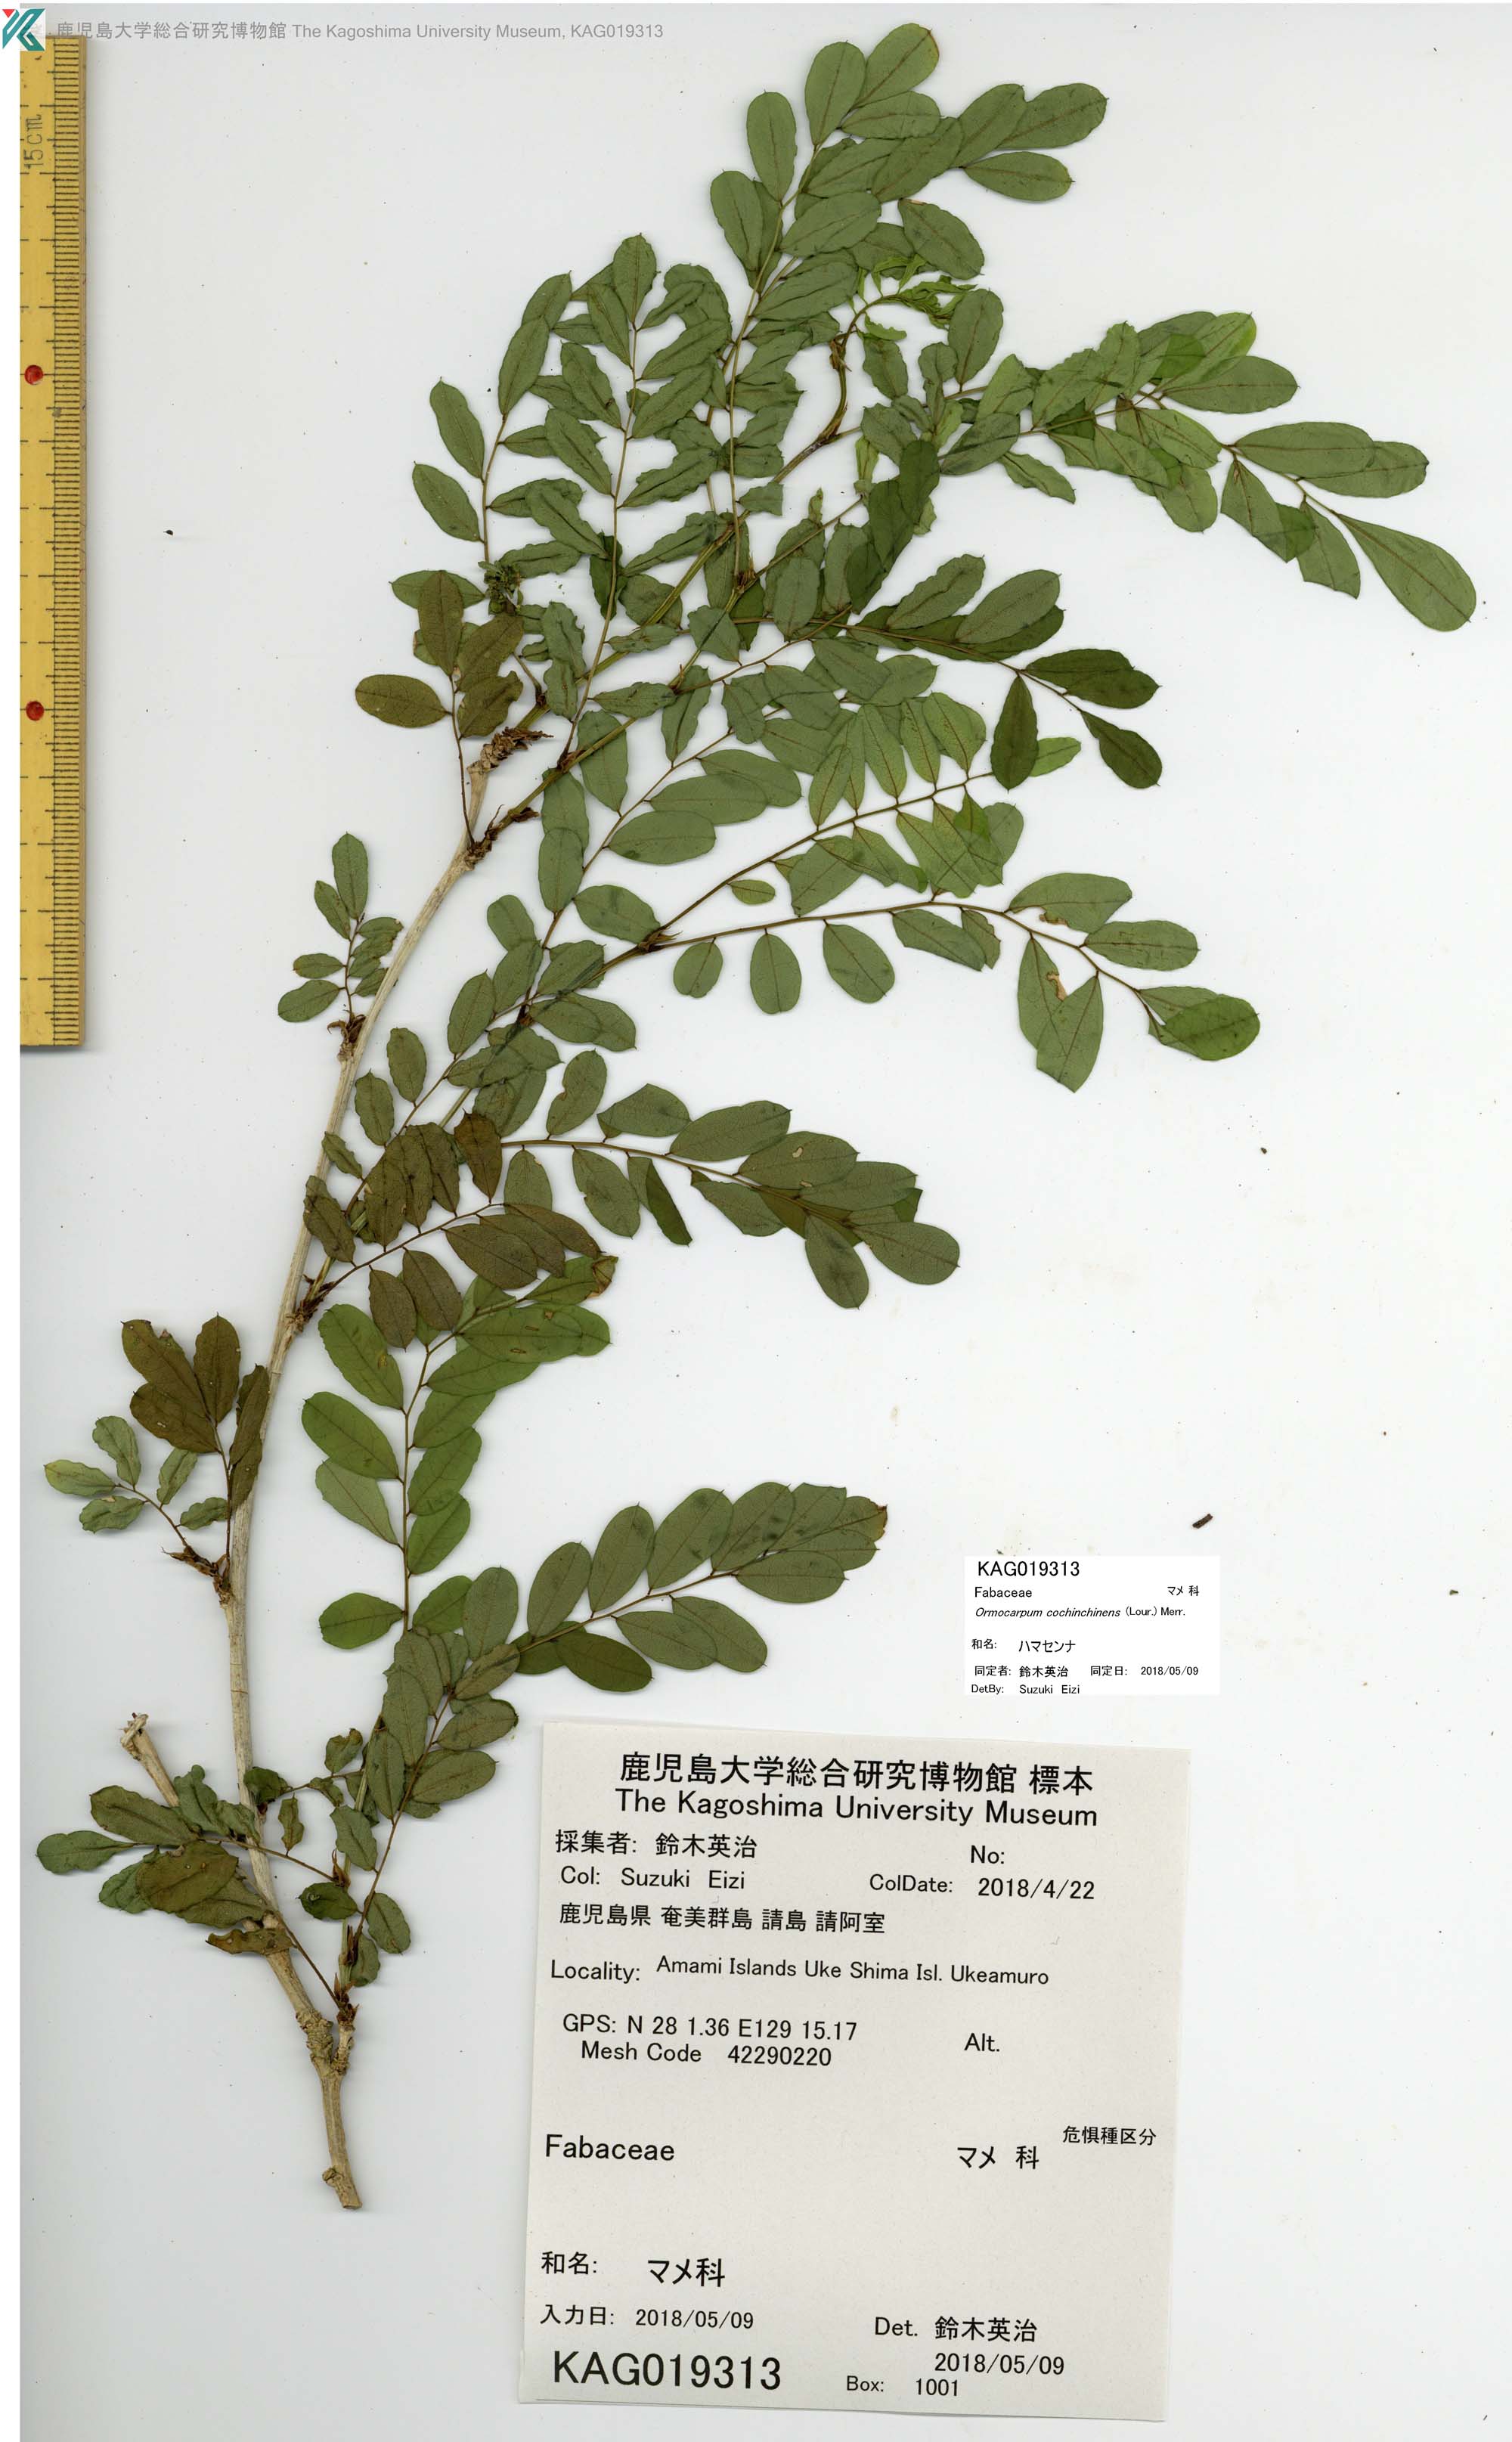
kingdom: Plantae
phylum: Tracheophyta
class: Magnoliopsida
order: Fabales
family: Fabaceae
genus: Ormocarpum
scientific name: Ormocarpum cochinchinense
